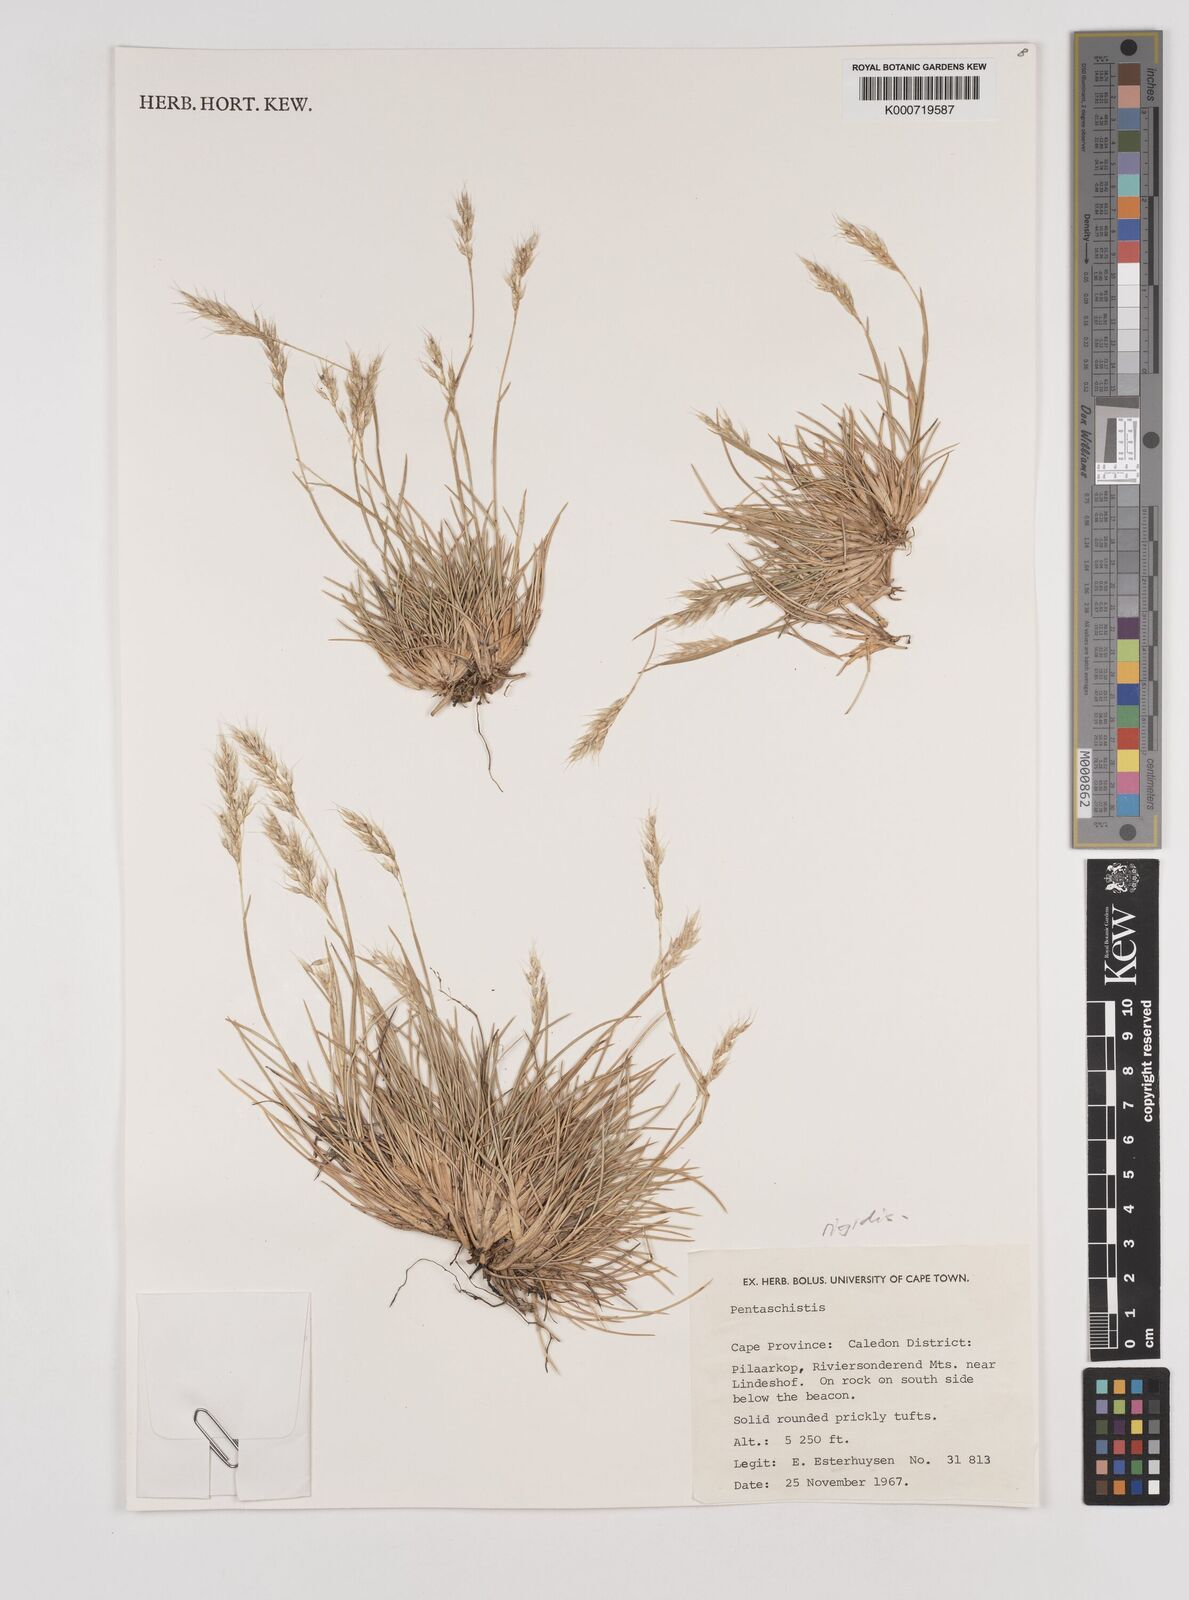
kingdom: Plantae
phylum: Tracheophyta
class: Liliopsida
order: Poales
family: Poaceae
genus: Pentameris
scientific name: Pentameris rigidissima
